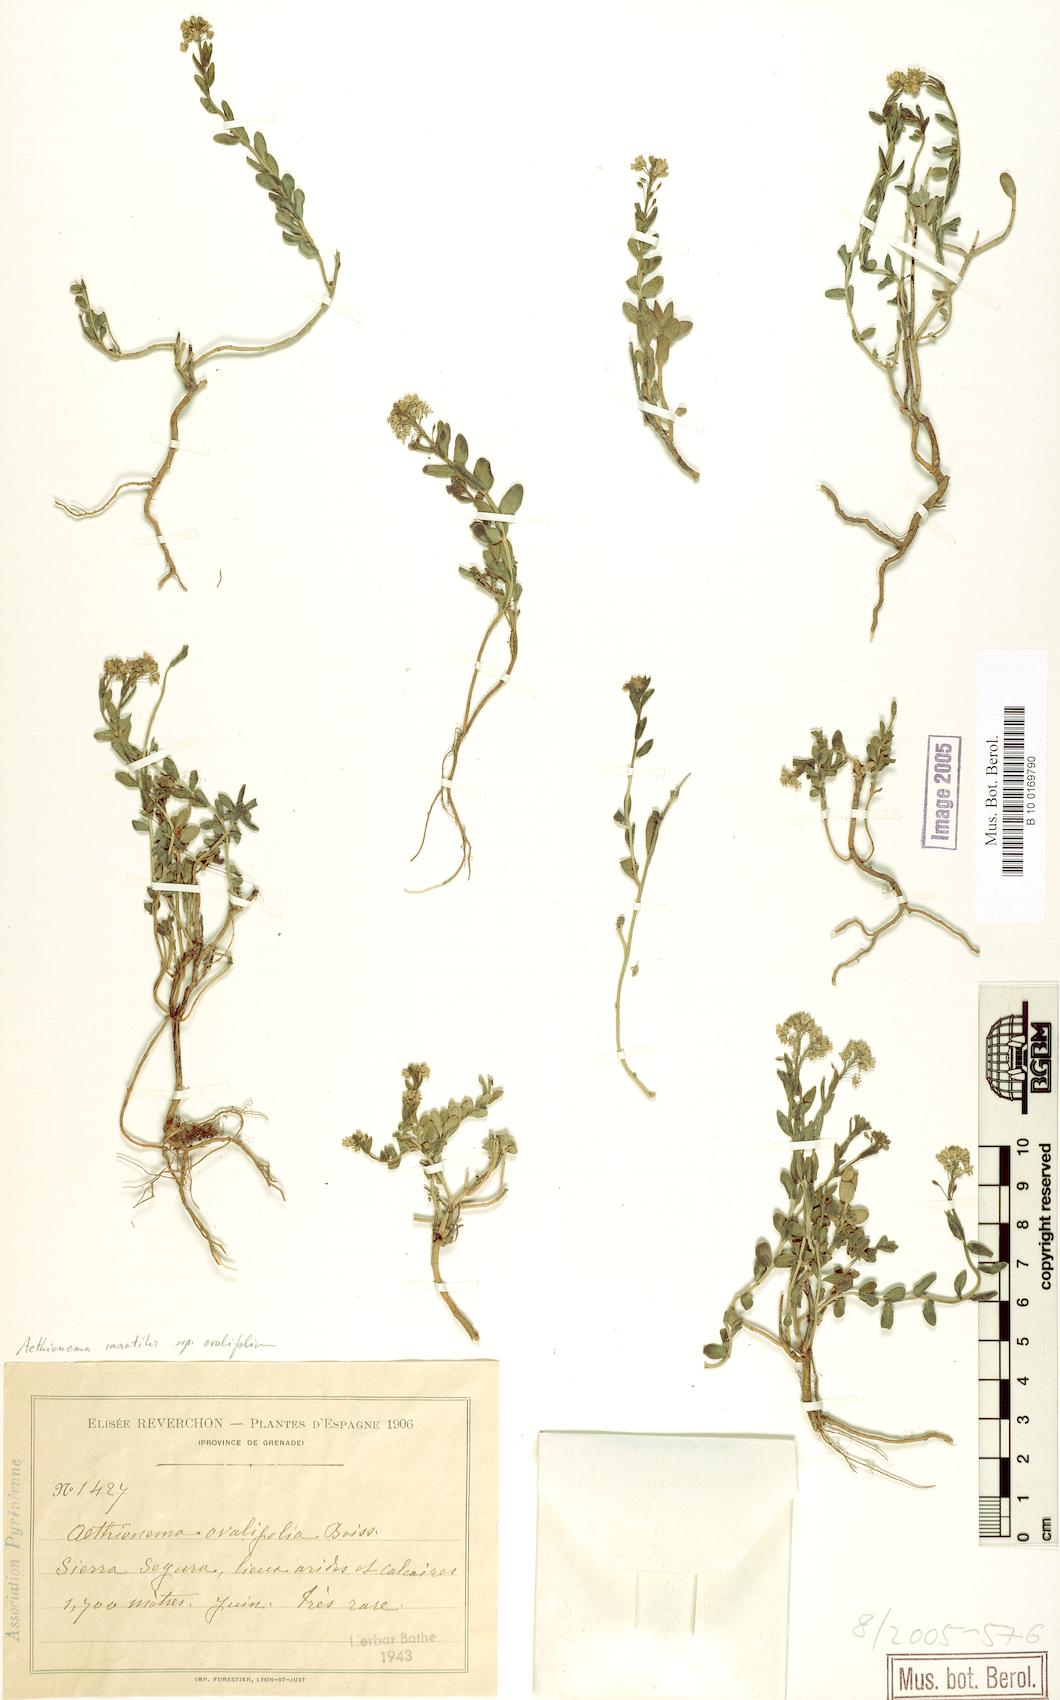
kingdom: Plantae
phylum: Tracheophyta
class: Magnoliopsida
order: Brassicales
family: Brassicaceae
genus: Aethionema
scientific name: Aethionema saxatile
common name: Burnt candytuft
